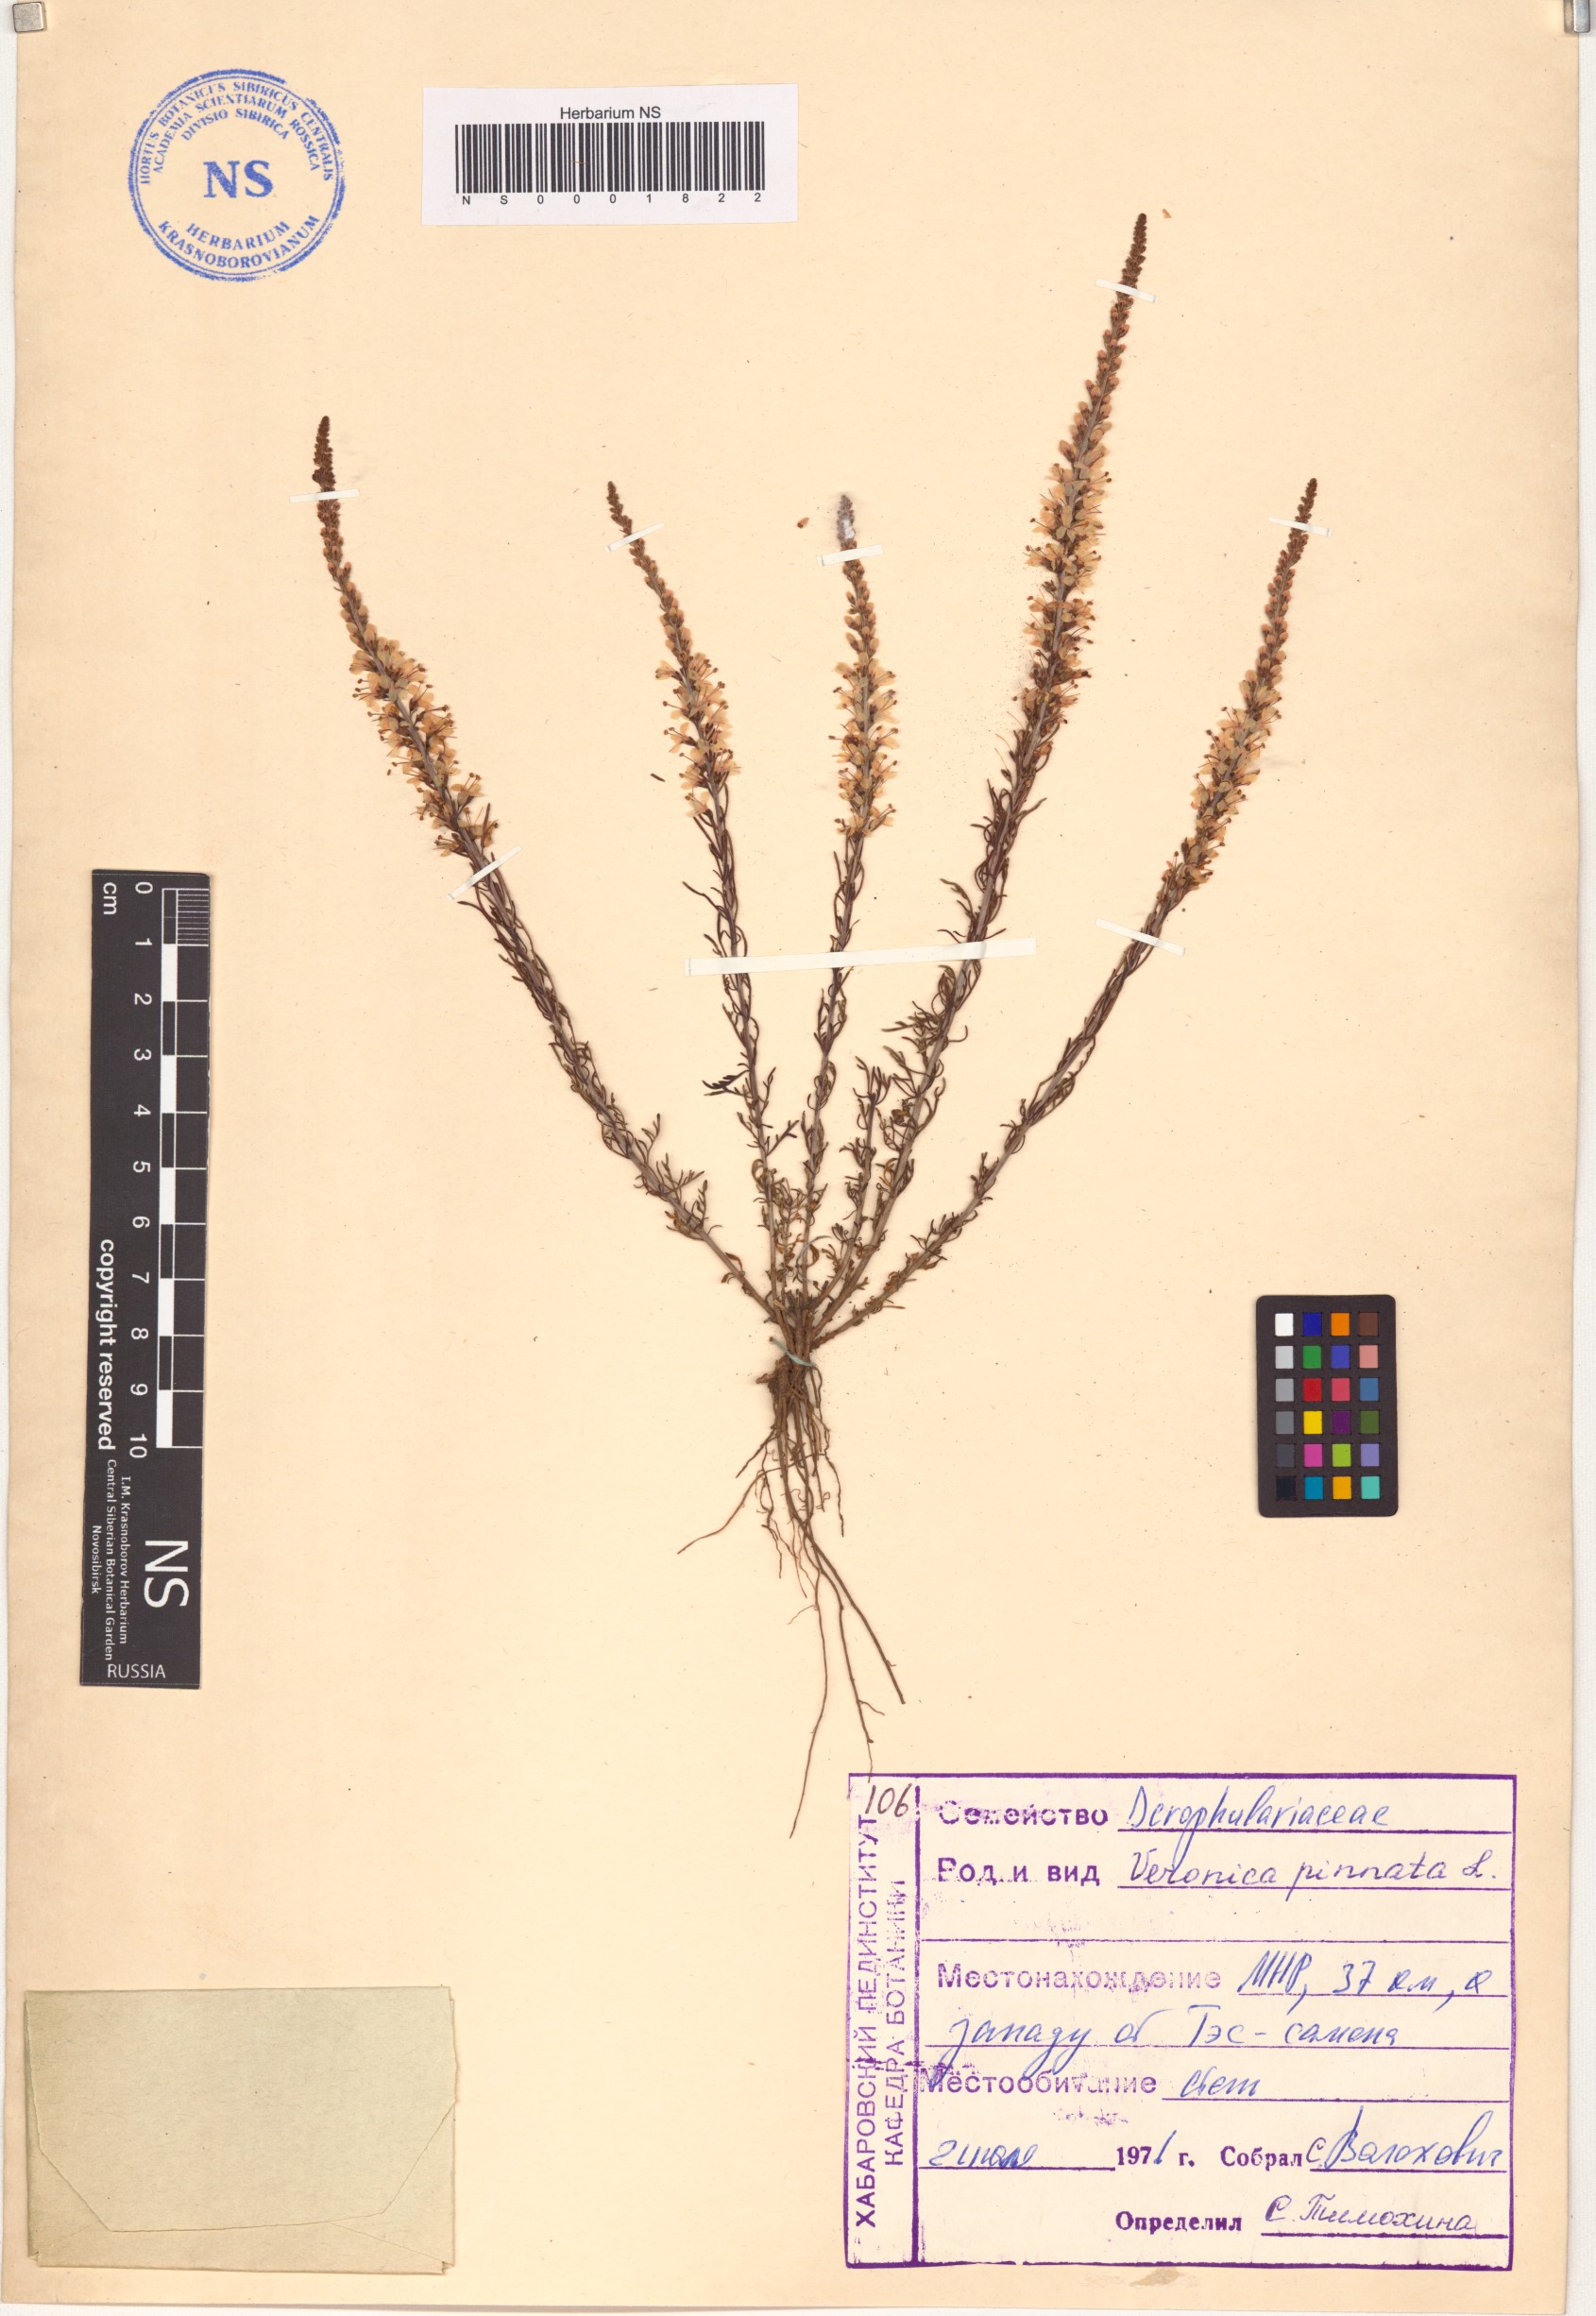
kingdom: Plantae
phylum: Tracheophyta
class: Magnoliopsida
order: Lamiales
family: Plantaginaceae
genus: Veronica
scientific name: Veronica pinnata
